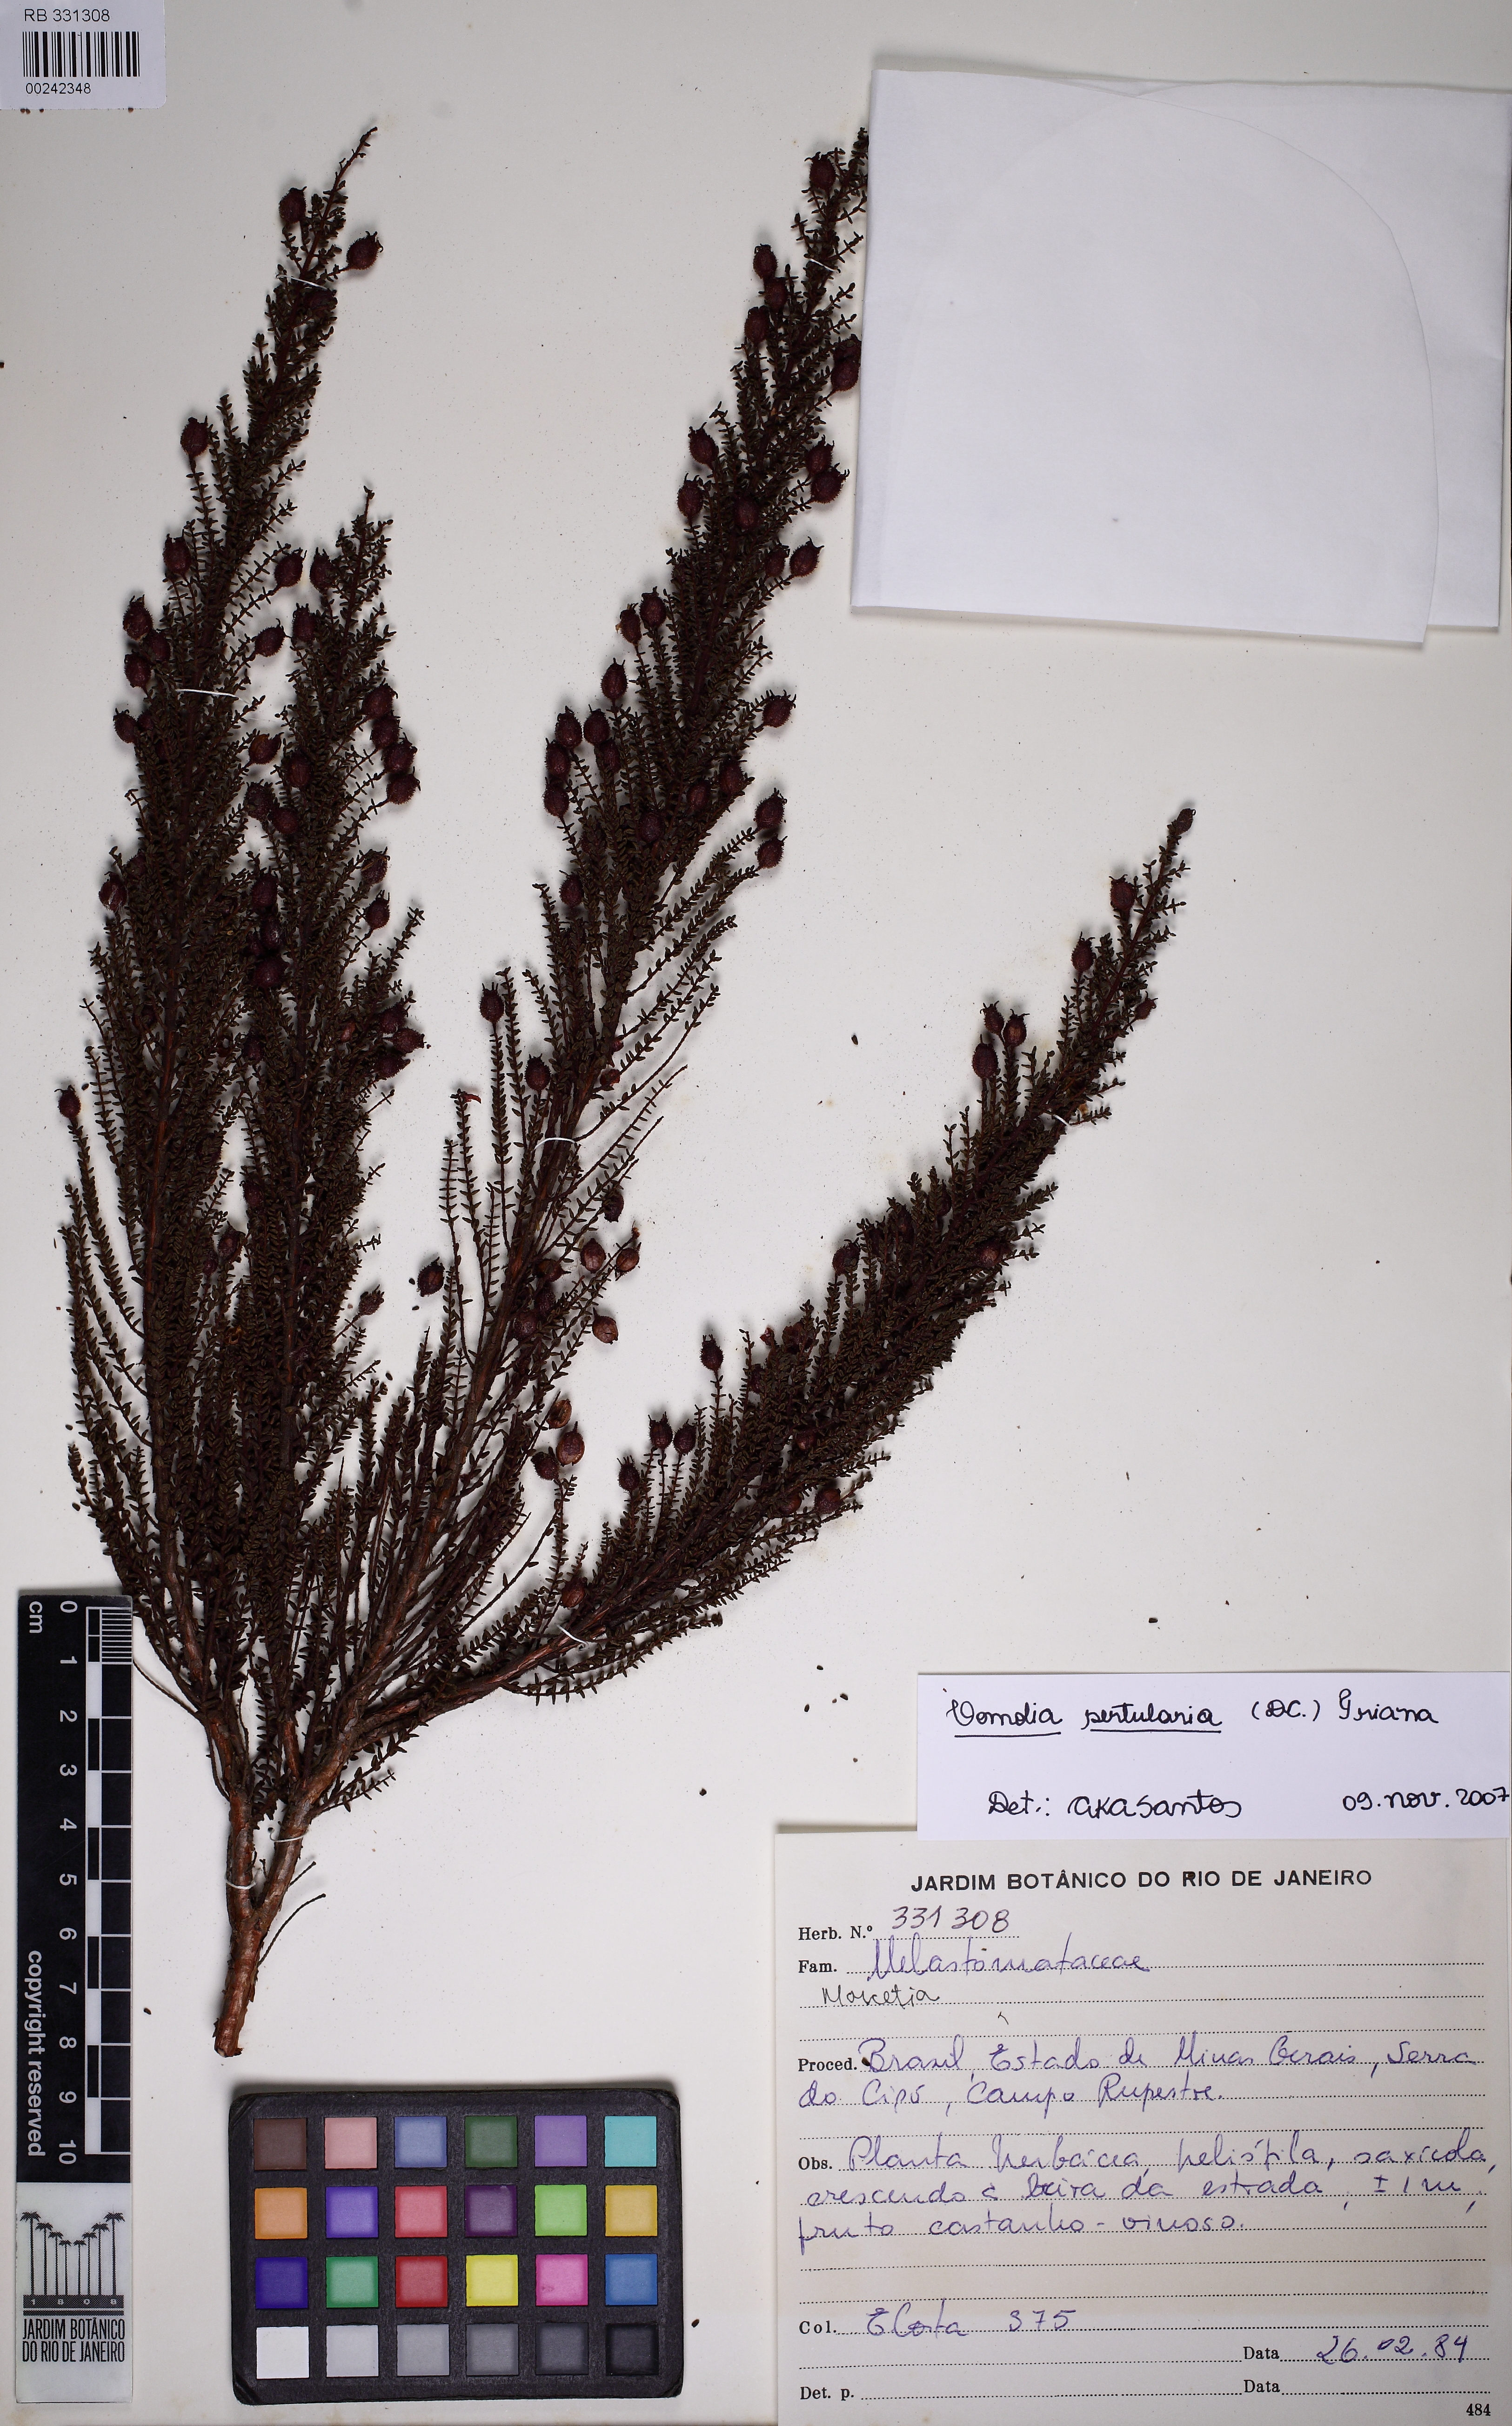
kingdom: Plantae
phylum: Tracheophyta
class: Magnoliopsida
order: Myrtales
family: Melastomataceae
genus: Fritzschia
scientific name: Fritzschia sertularia
